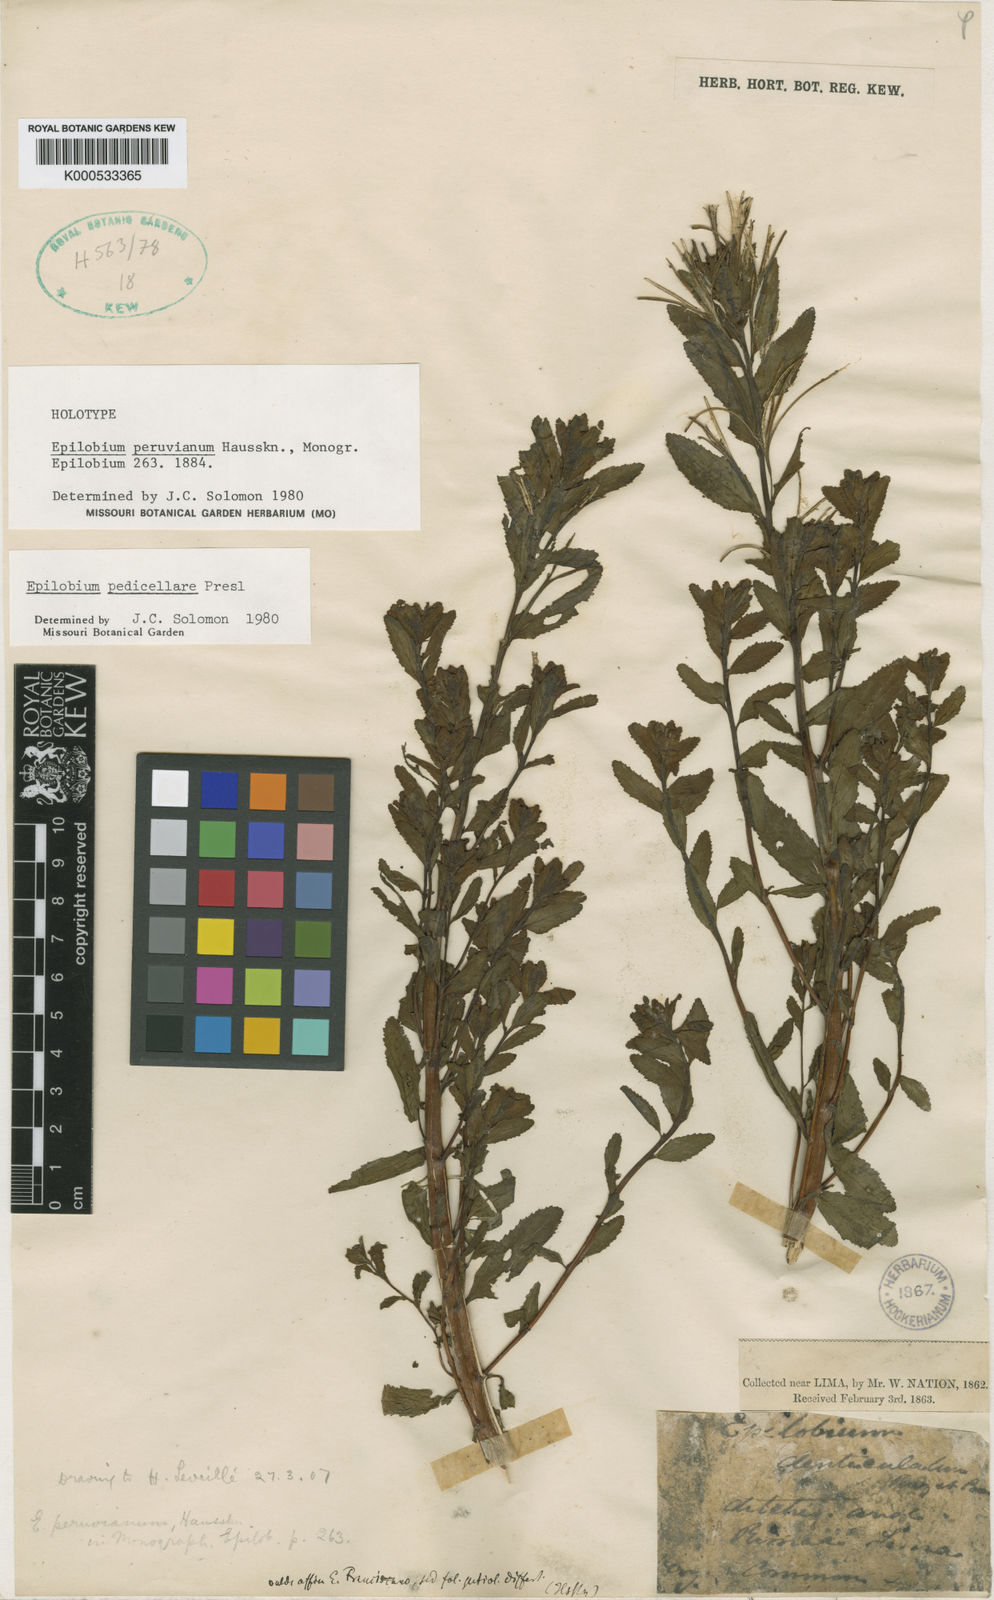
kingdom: Plantae
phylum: Tracheophyta
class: Magnoliopsida
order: Myrtales
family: Onagraceae
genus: Epilobium
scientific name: Epilobium pedicellare
